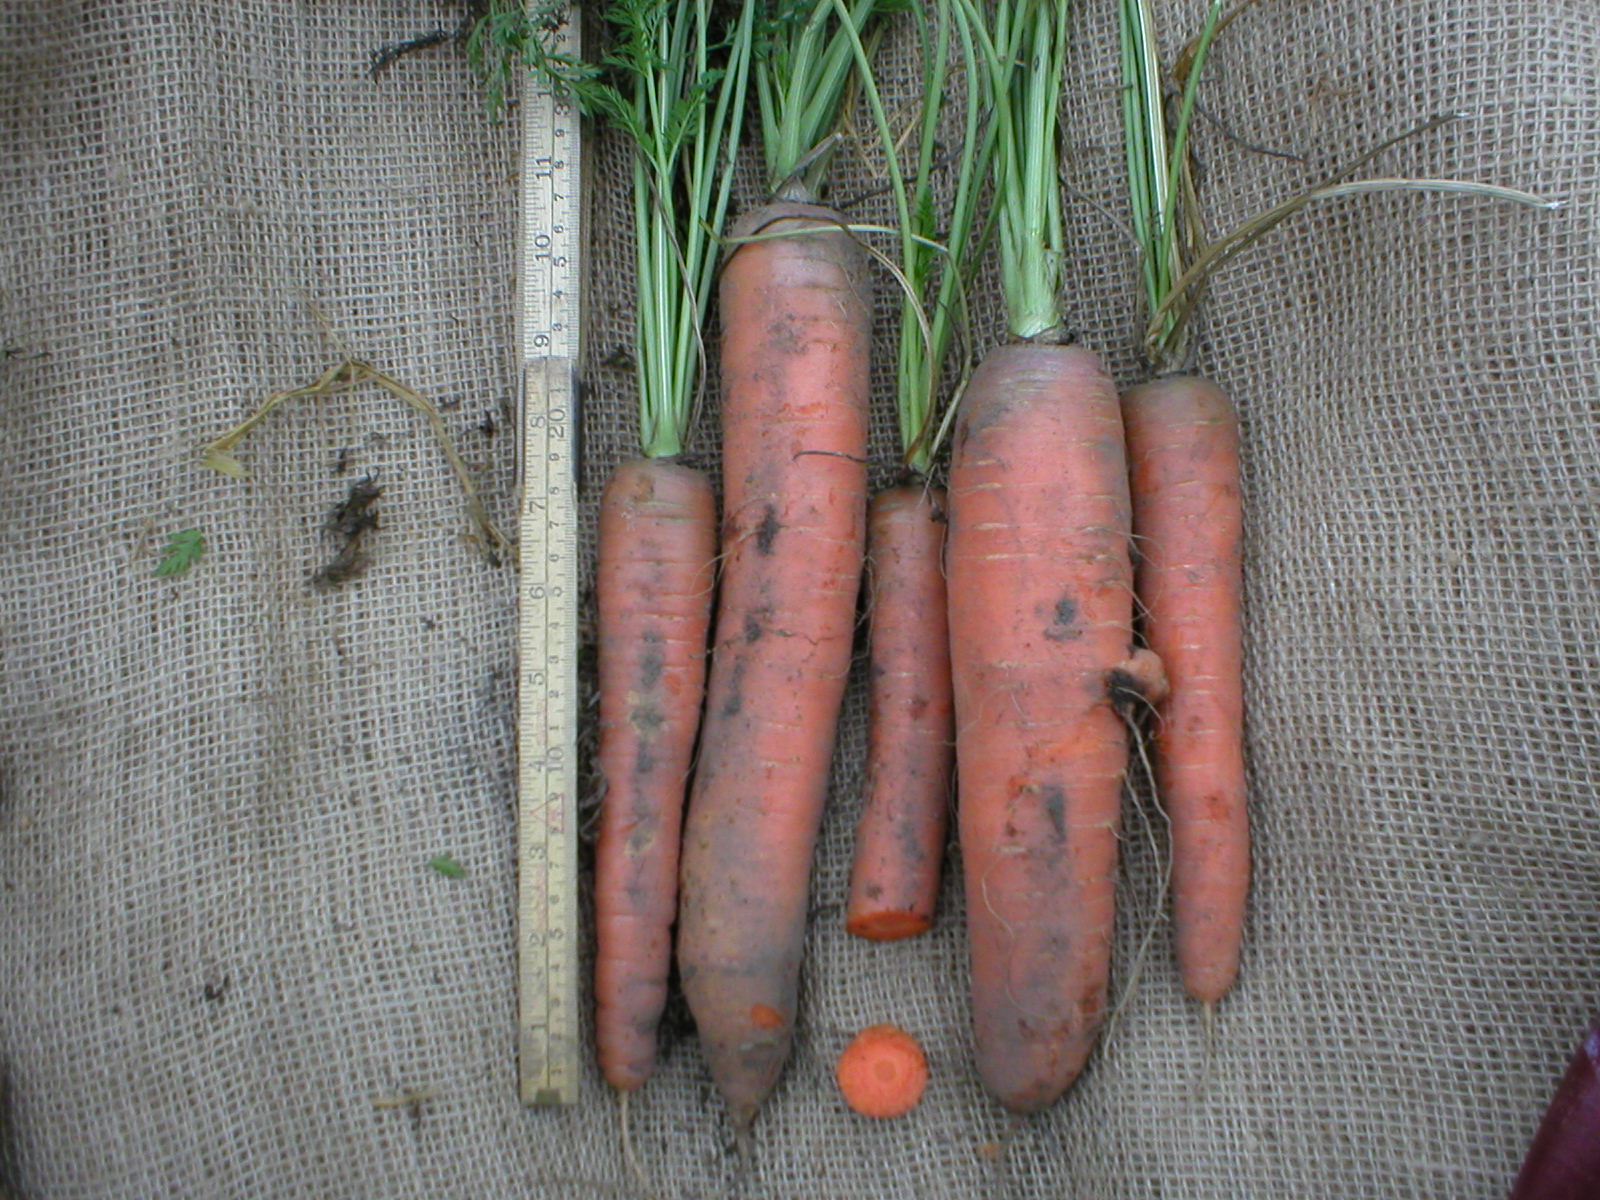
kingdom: Plantae
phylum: Tracheophyta
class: Magnoliopsida
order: Apiales
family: Apiaceae
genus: Daucus
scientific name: Daucus carota
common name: Wild carrot
